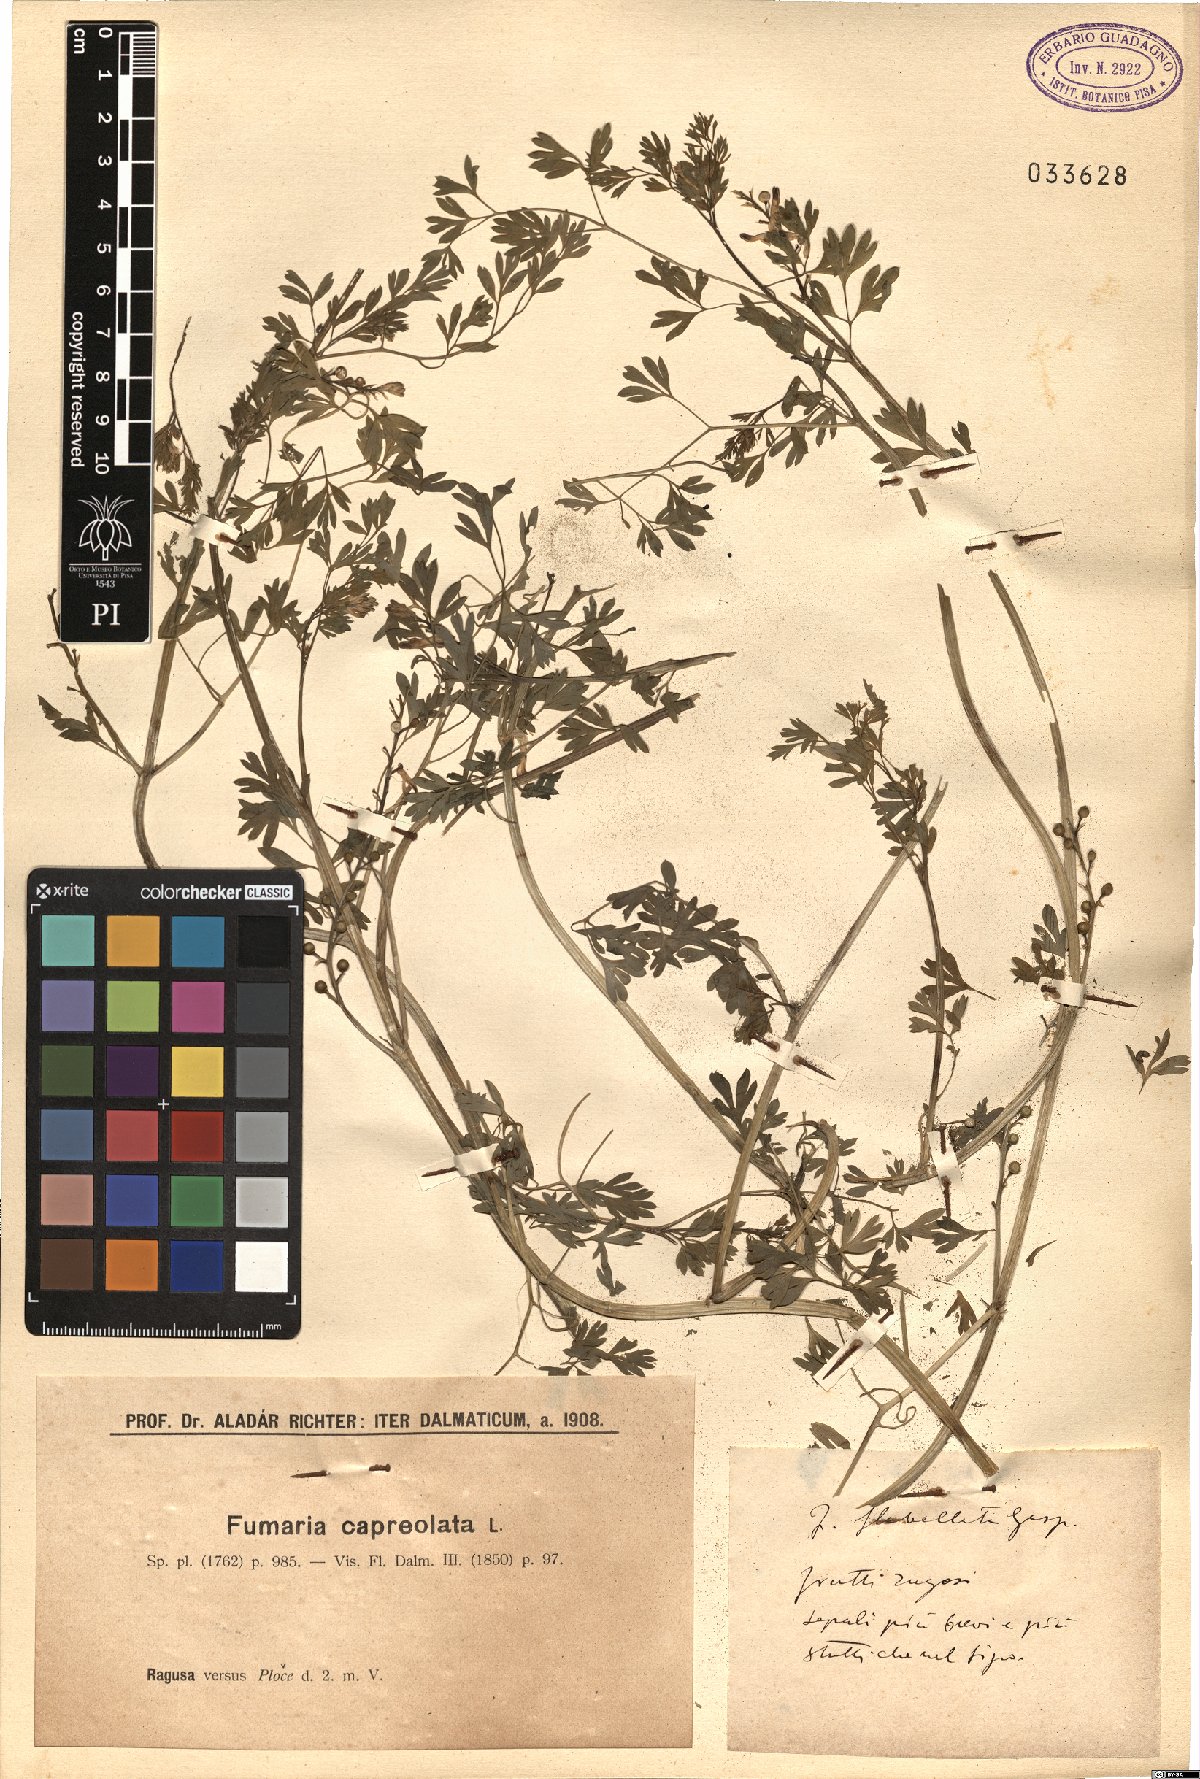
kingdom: Plantae
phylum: Tracheophyta
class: Magnoliopsida
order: Ranunculales
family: Papaveraceae
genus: Fumaria
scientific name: Fumaria flabellata
